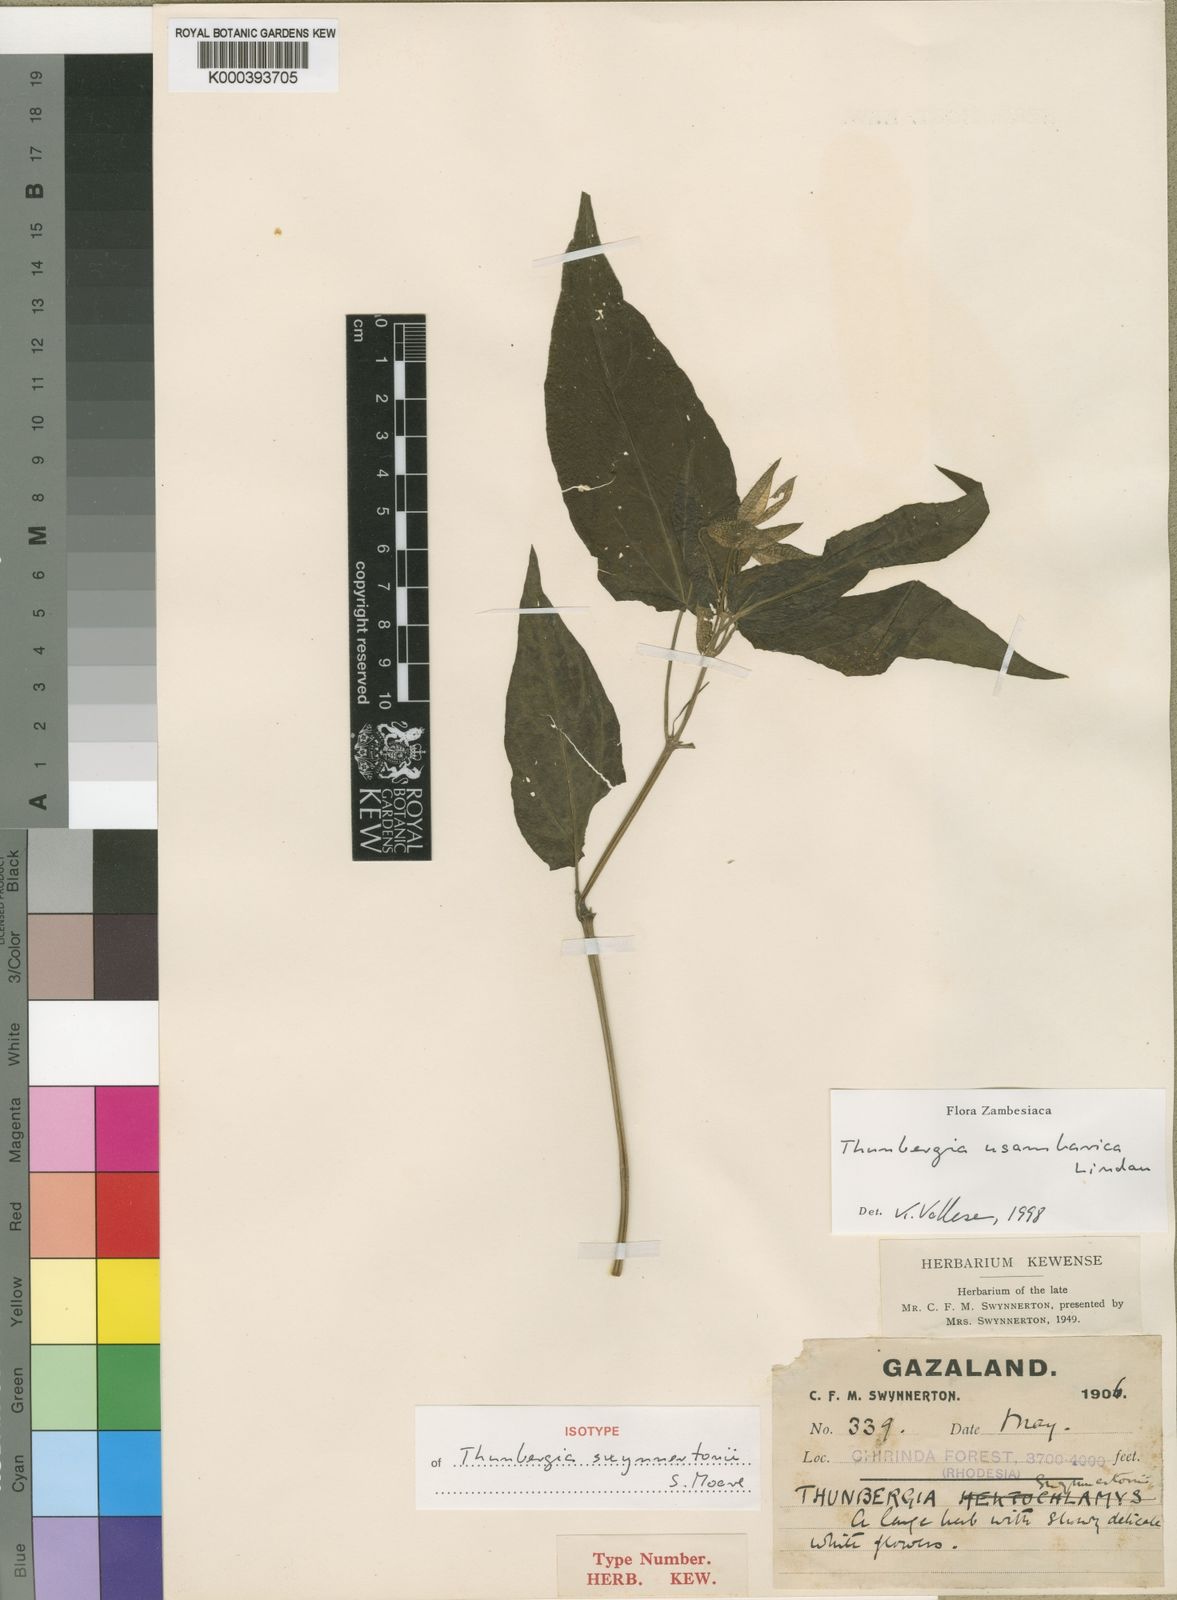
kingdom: Plantae
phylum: Tracheophyta
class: Magnoliopsida
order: Lamiales
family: Acanthaceae
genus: Thunbergia
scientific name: Thunbergia usambarica
